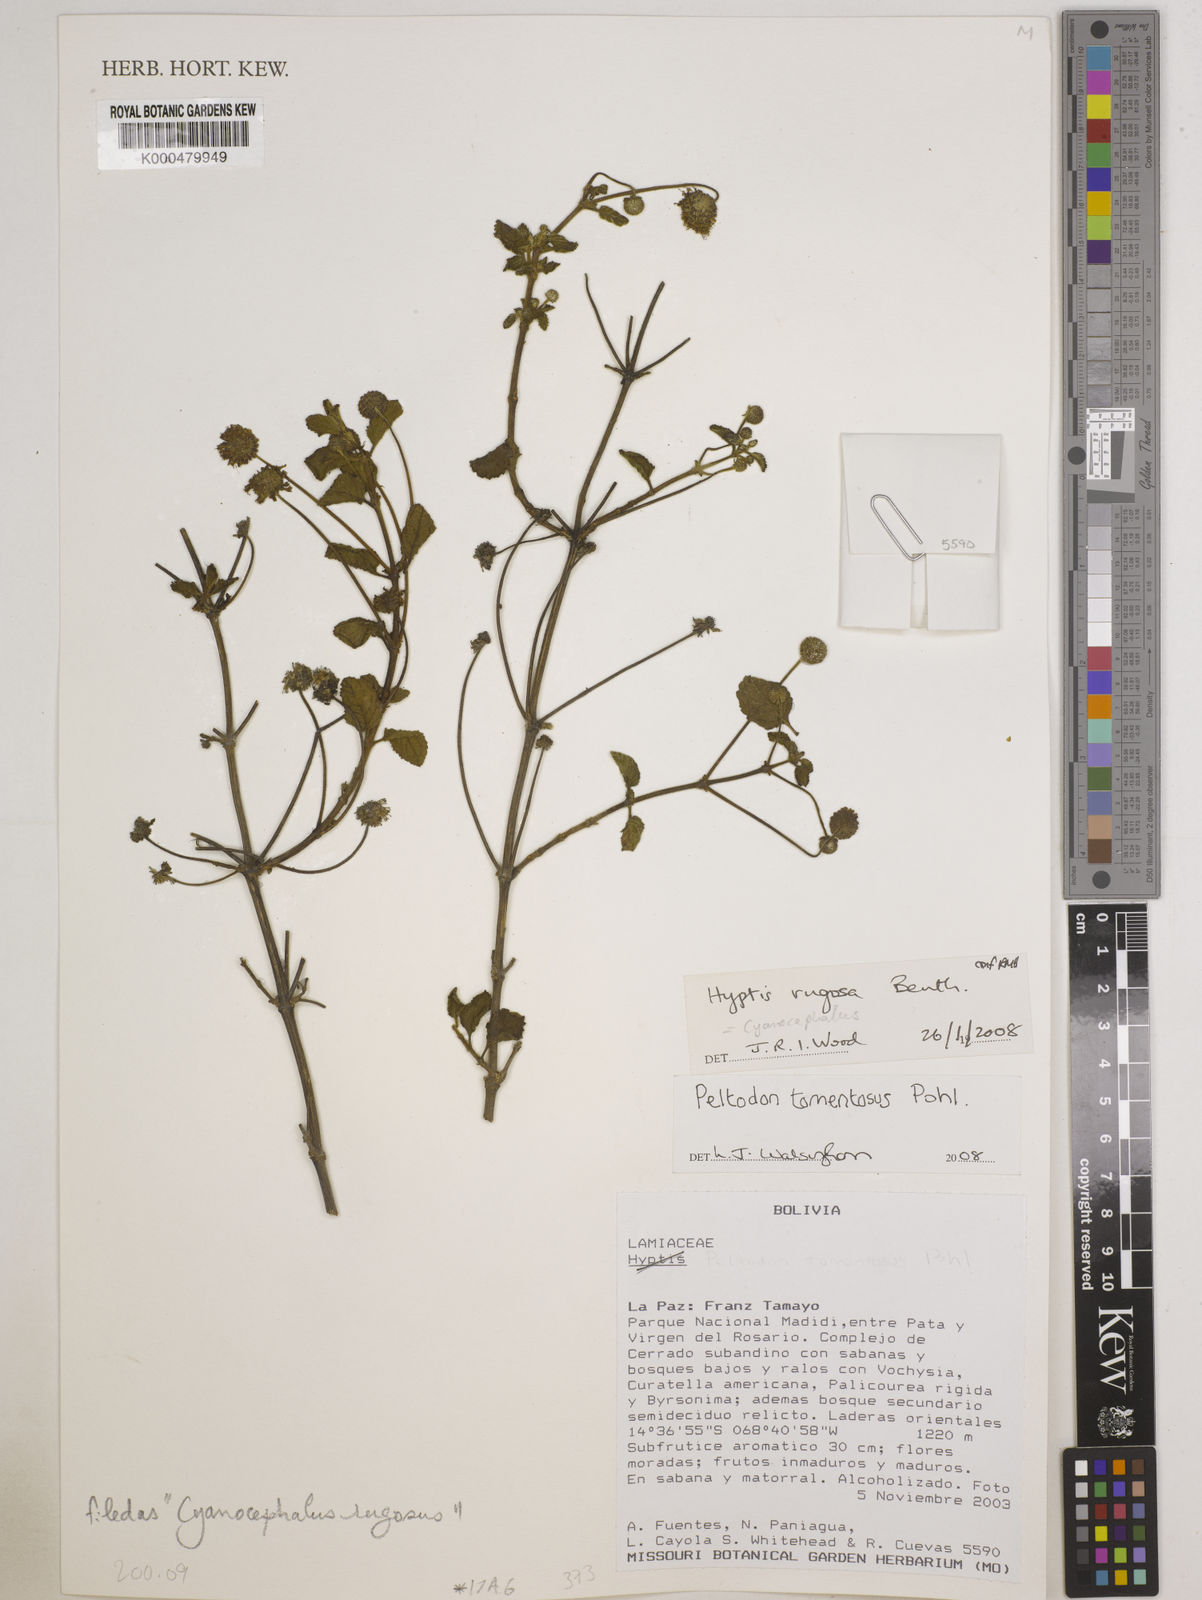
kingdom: Plantae
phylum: Tracheophyta
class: Magnoliopsida
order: Lamiales
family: Lamiaceae
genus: Hyptis
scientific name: Hyptis campestris
